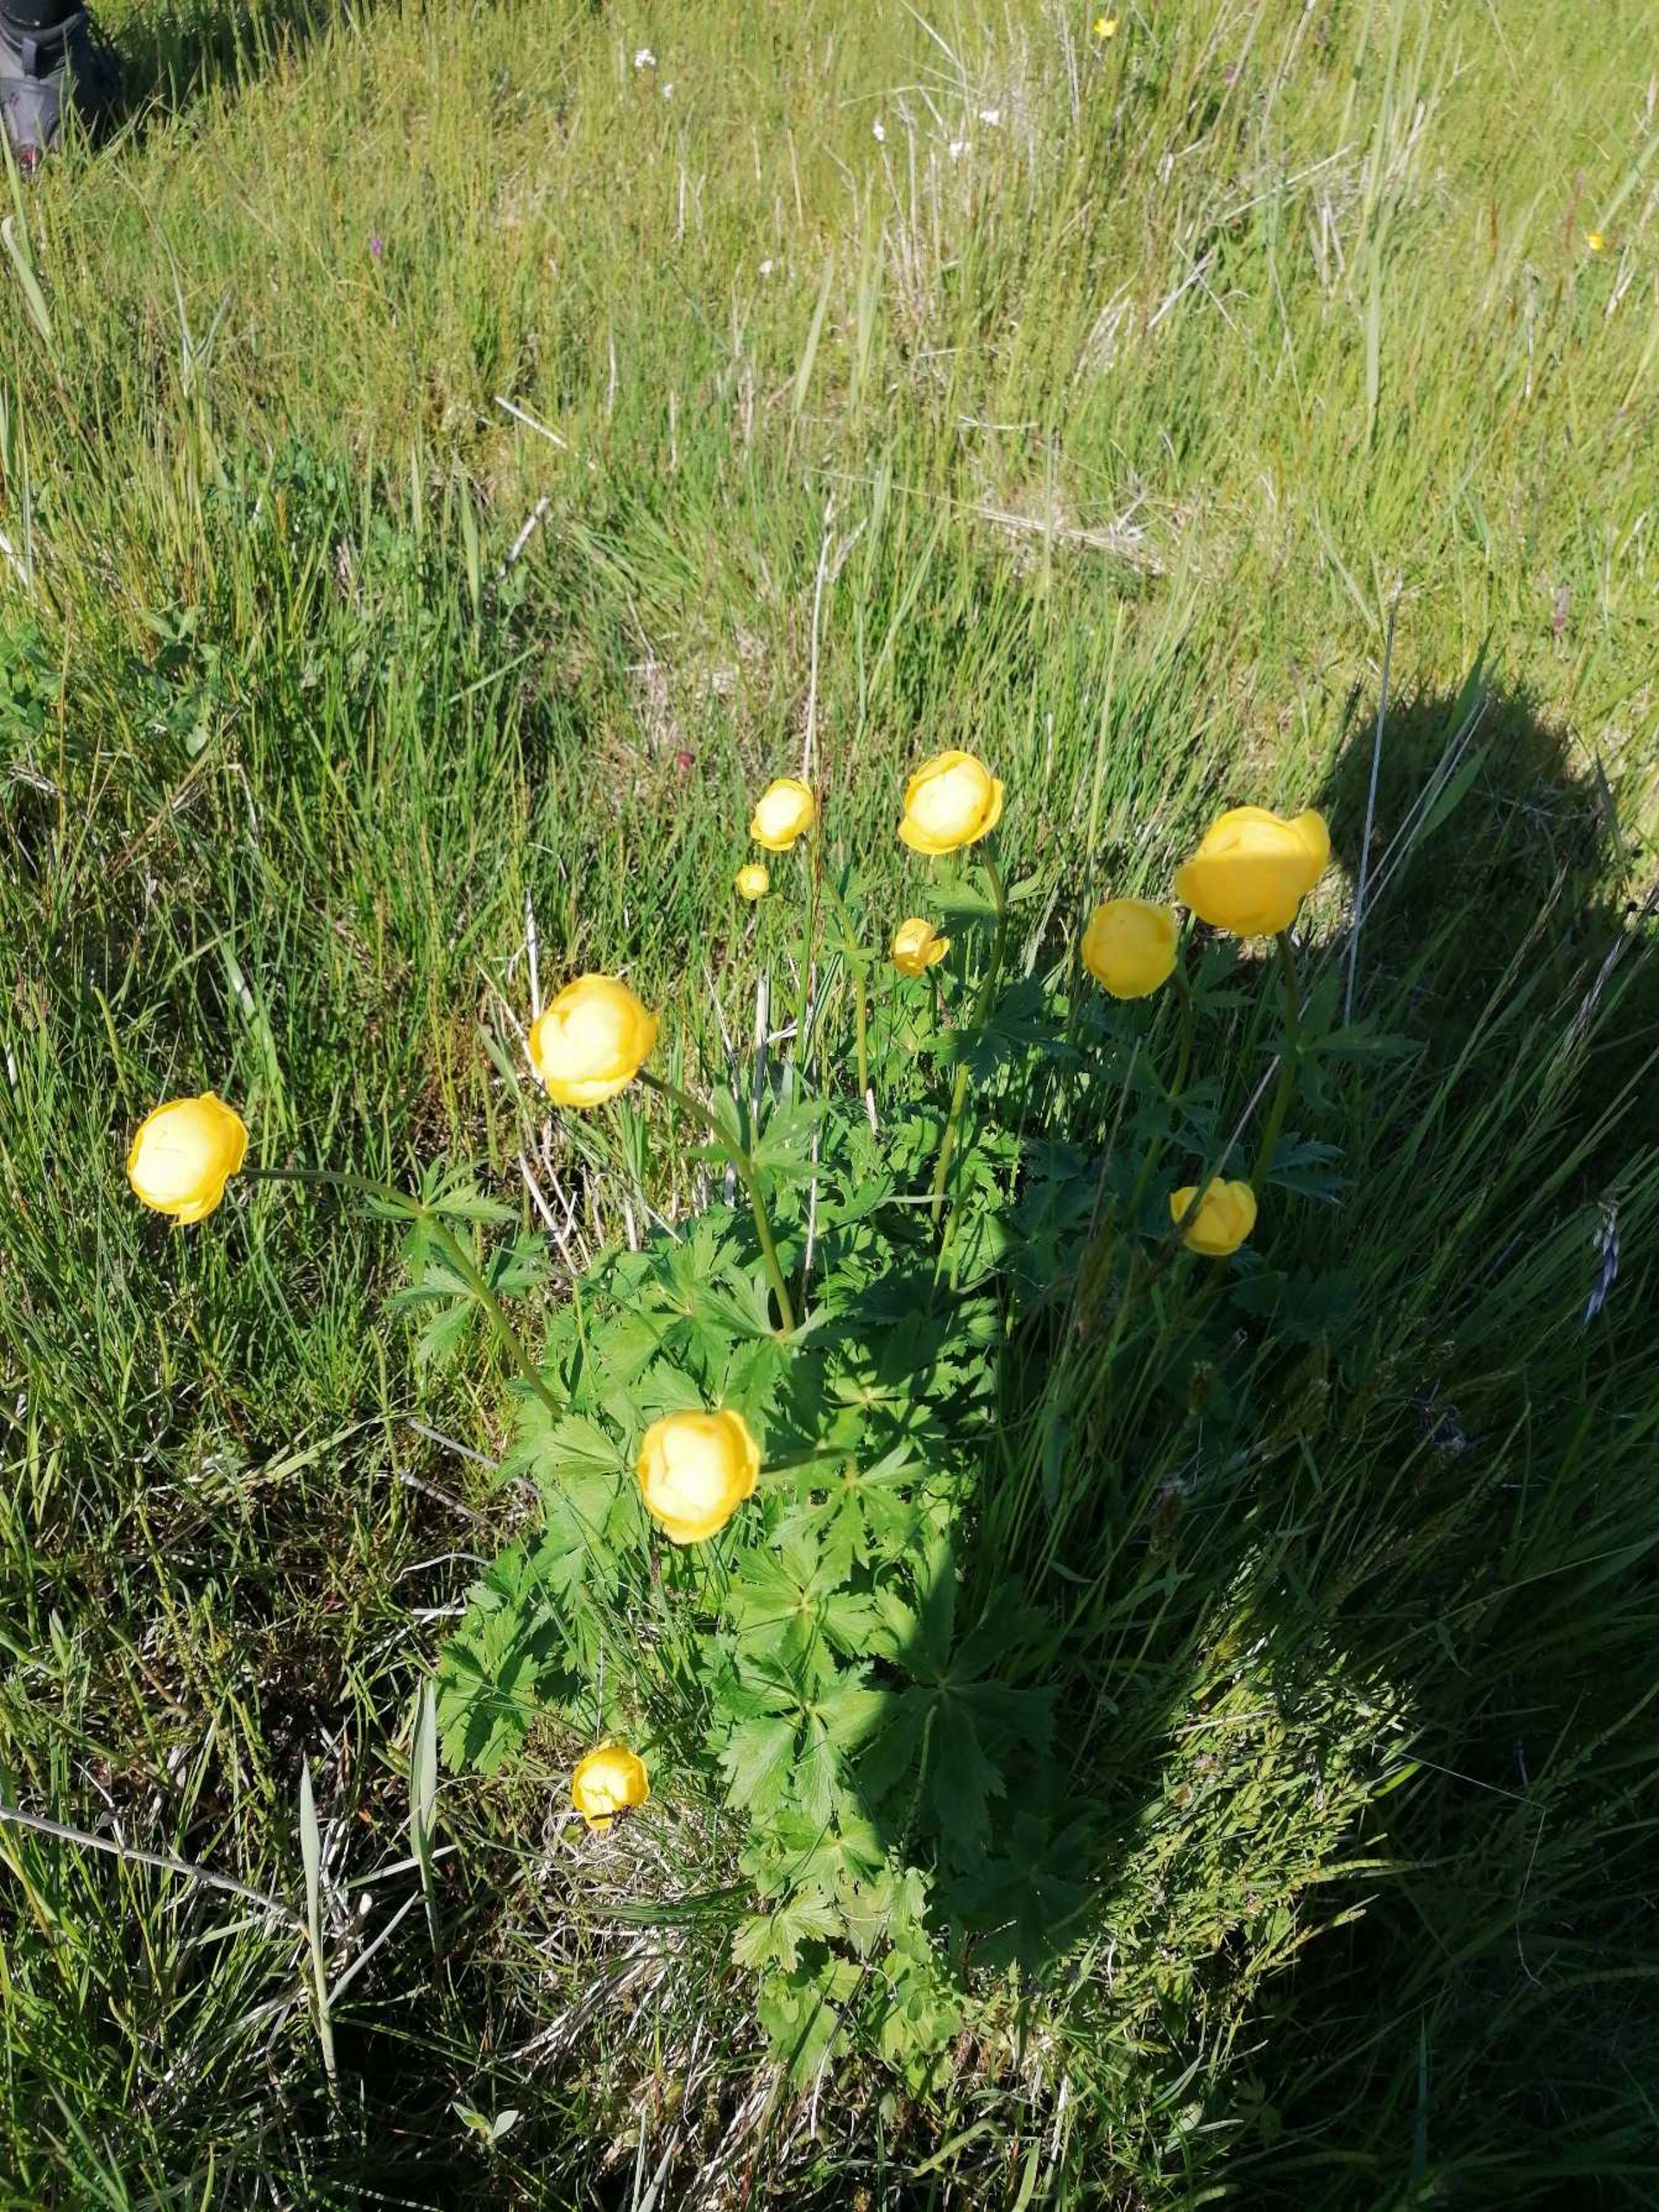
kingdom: Plantae
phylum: Tracheophyta
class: Magnoliopsida
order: Ranunculales
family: Ranunculaceae
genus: Trollius
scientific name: Trollius europaeus
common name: Engblomme
